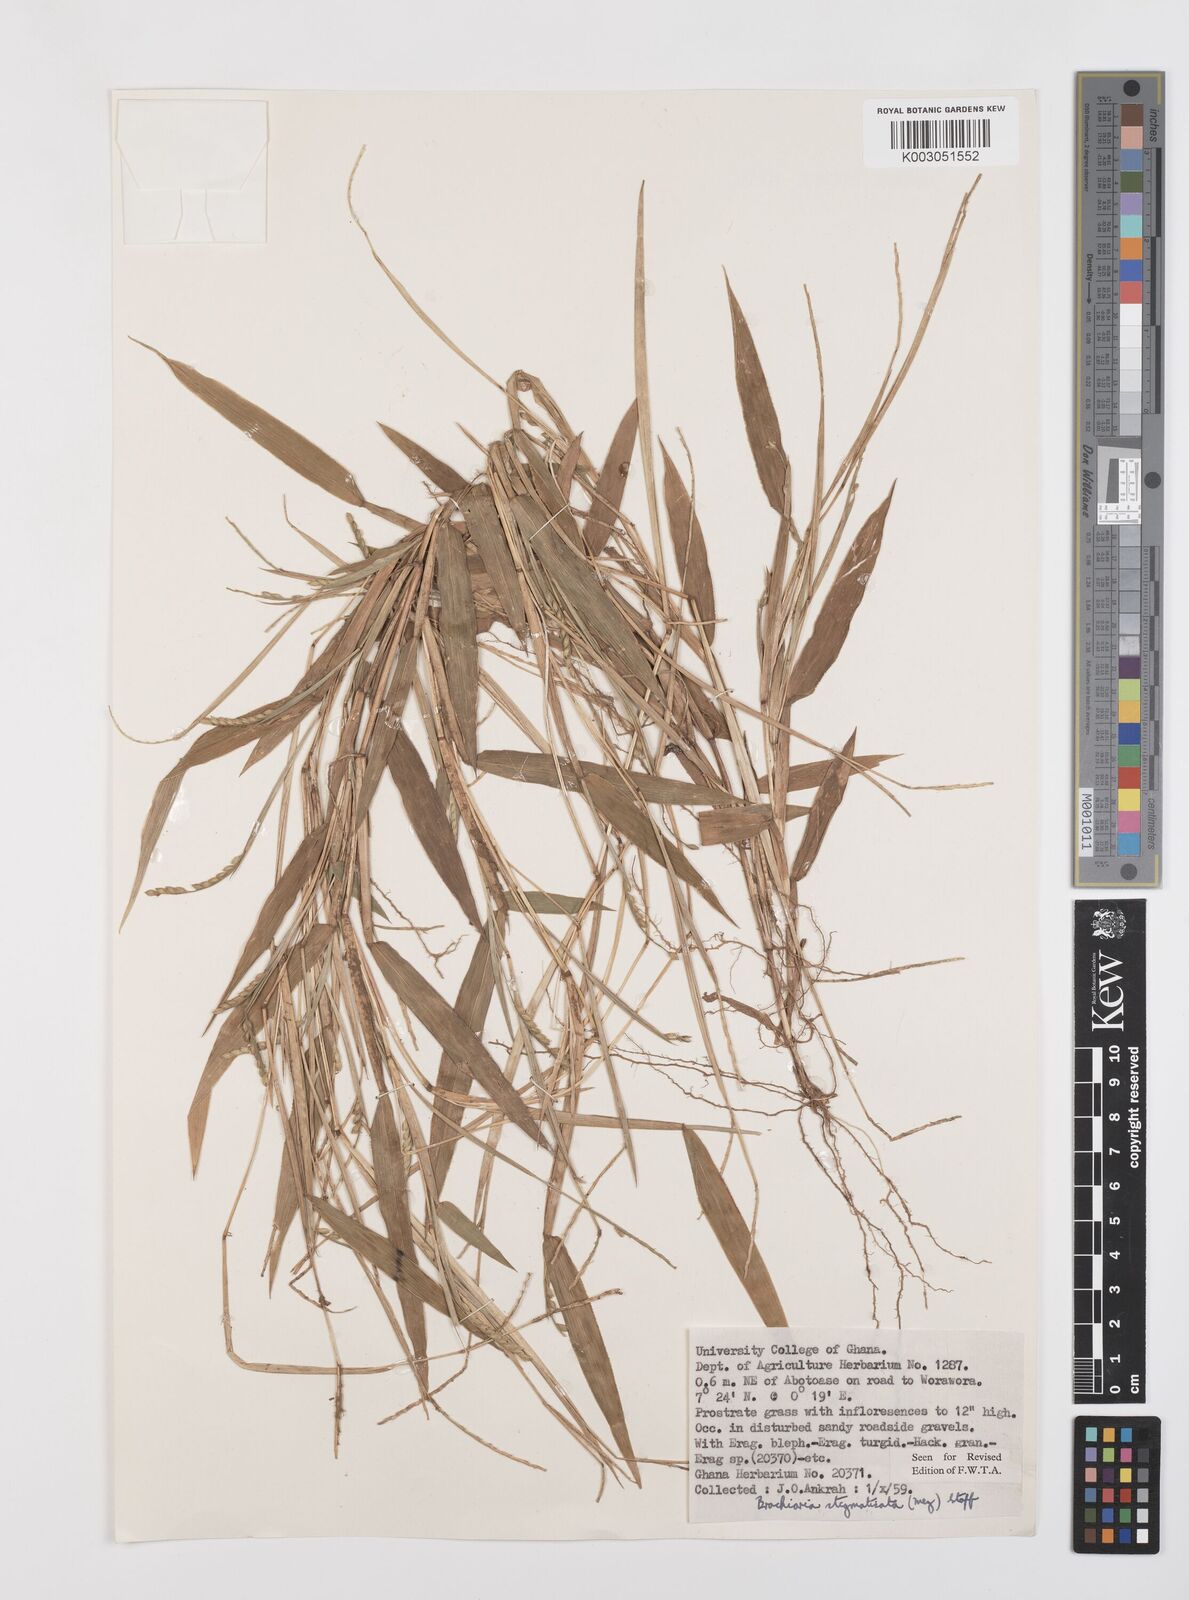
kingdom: Plantae
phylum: Tracheophyta
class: Liliopsida
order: Poales
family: Poaceae
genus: Urochloa
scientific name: Urochloa stigmatisata
